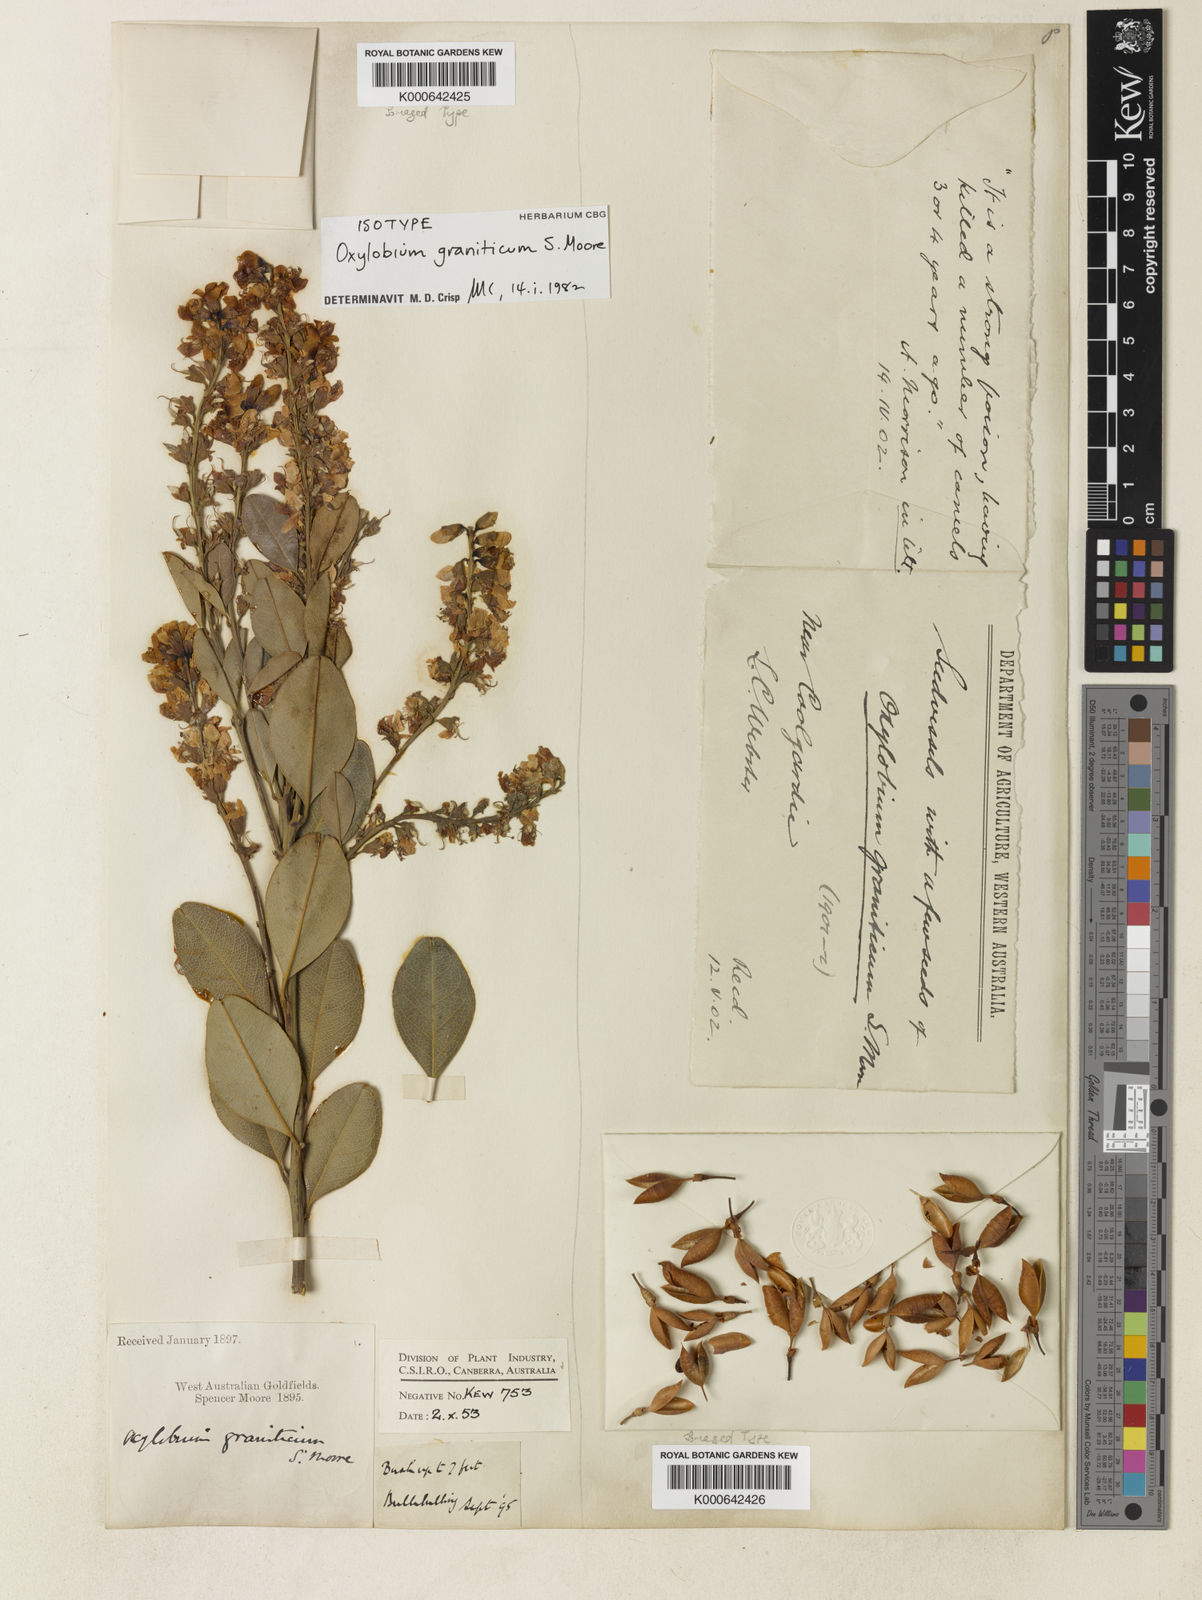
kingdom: Plantae
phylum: Tracheophyta
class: Magnoliopsida
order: Fabales
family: Fabaceae
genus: Gastrolobium
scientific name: Gastrolobium graniticum
